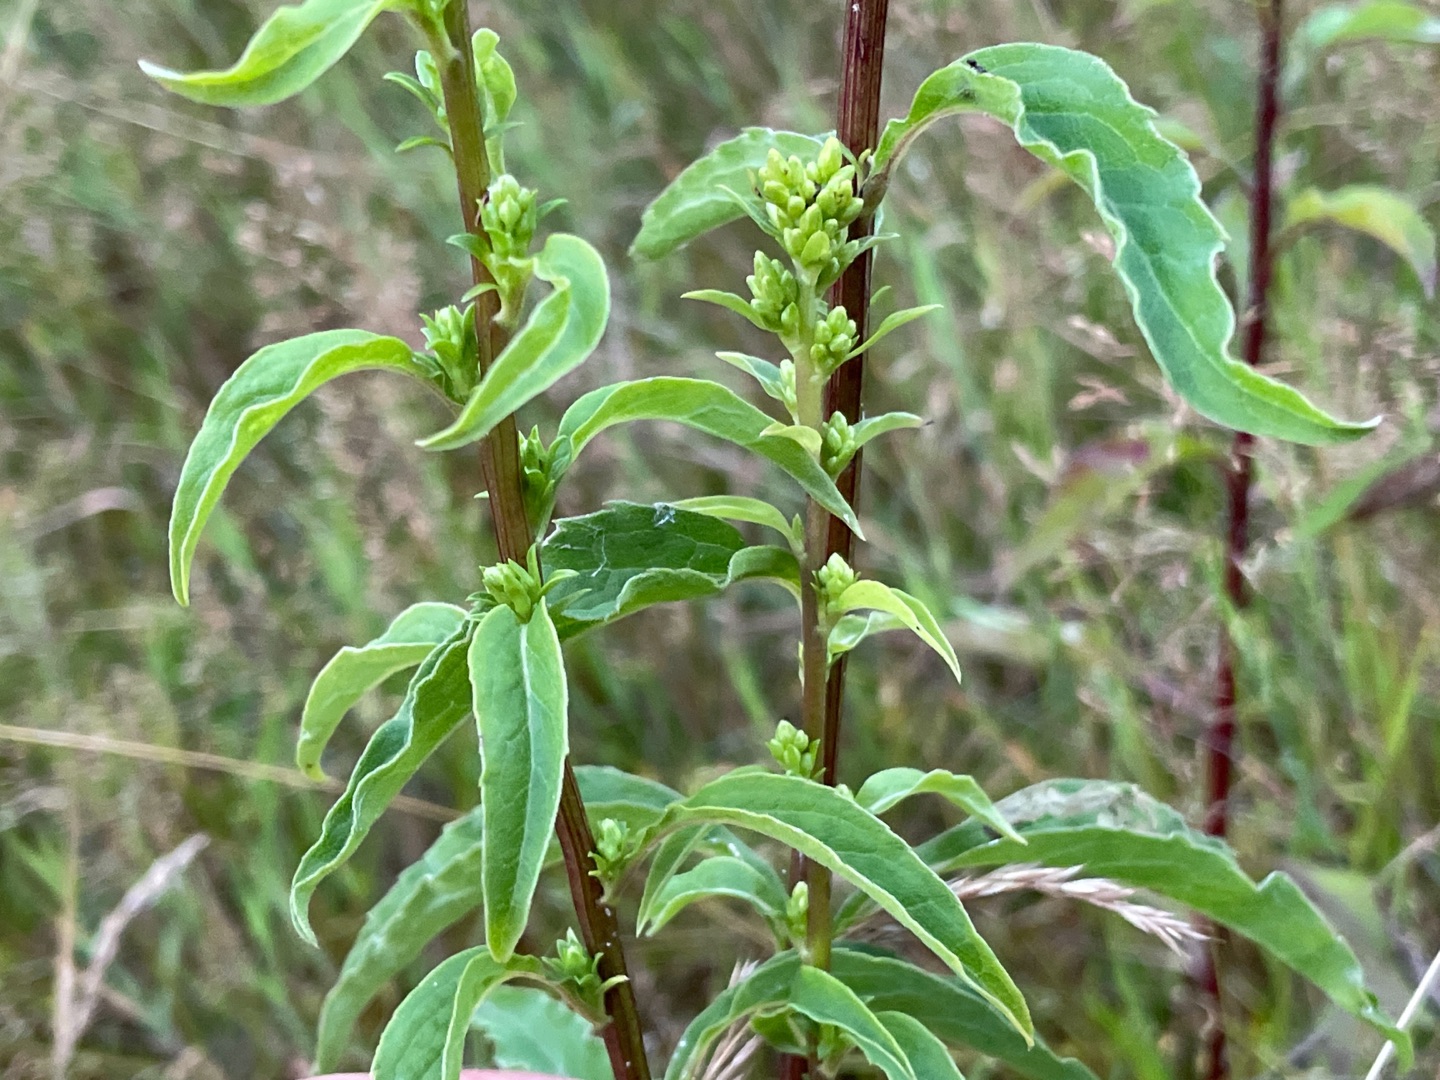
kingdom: Plantae
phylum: Tracheophyta
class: Magnoliopsida
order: Asterales
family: Asteraceae
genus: Solidago
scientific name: Solidago virgaurea
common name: Almindelig gyldenris
